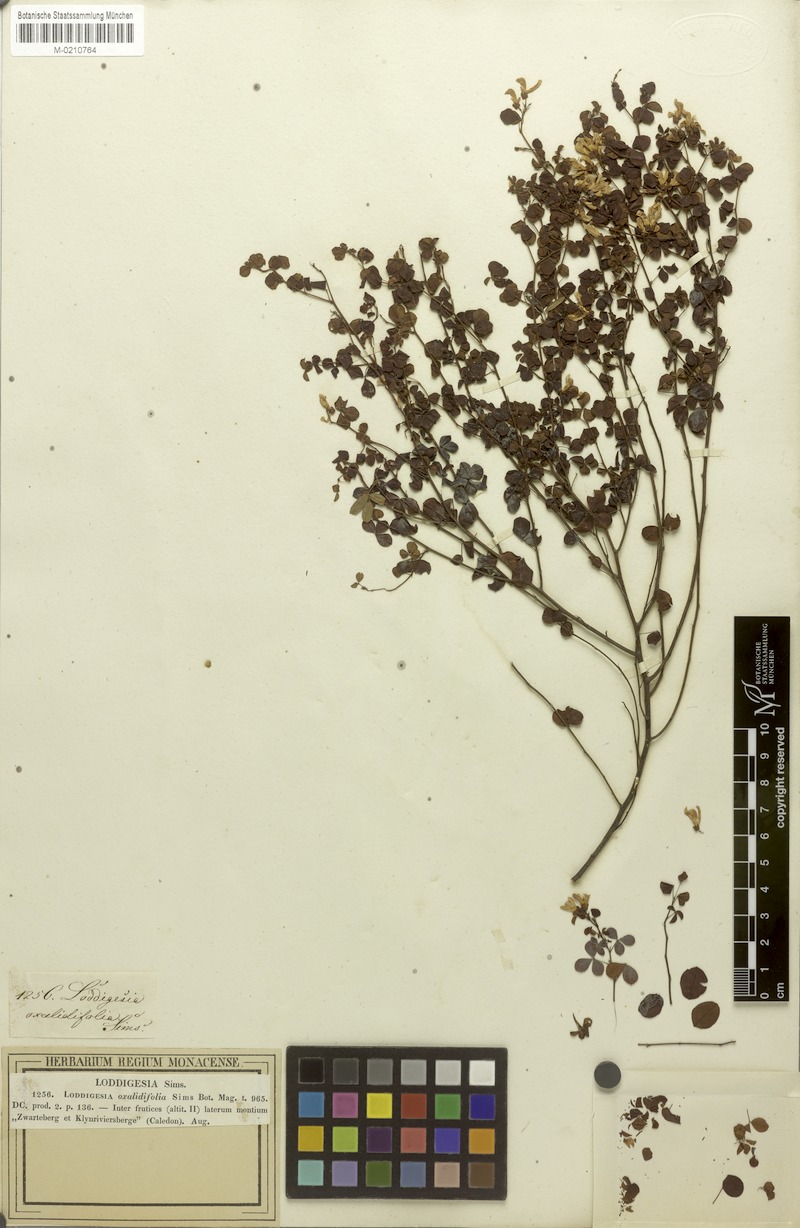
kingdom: Plantae
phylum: Tracheophyta
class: Magnoliopsida
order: Fabales
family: Fabaceae
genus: Hypocalyptus
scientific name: Hypocalyptus oxalidifolius
